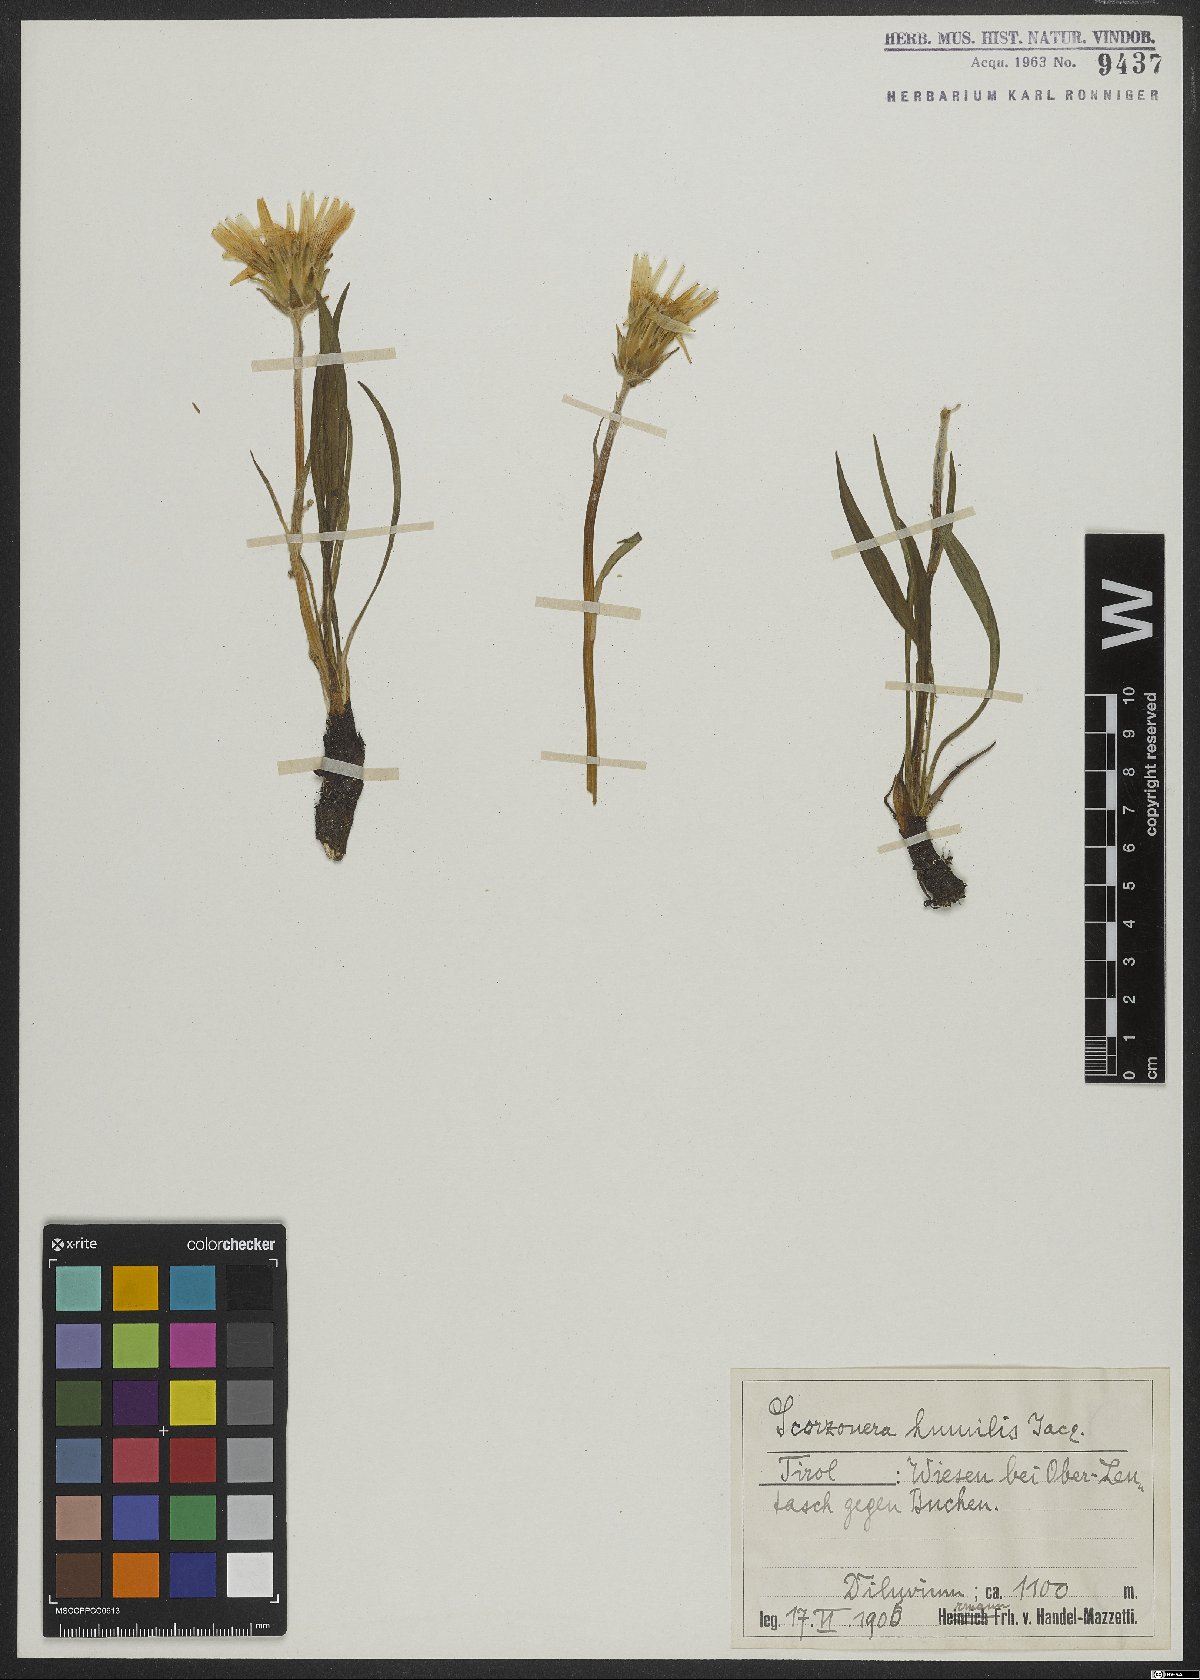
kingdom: Plantae
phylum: Tracheophyta
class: Magnoliopsida
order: Asterales
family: Asteraceae
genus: Scorzonera
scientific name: Scorzonera humilis
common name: Viper's-grass
